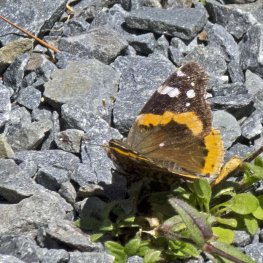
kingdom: Animalia
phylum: Arthropoda
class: Insecta
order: Lepidoptera
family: Nymphalidae
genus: Vanessa
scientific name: Vanessa atalanta
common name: Red Admiral
